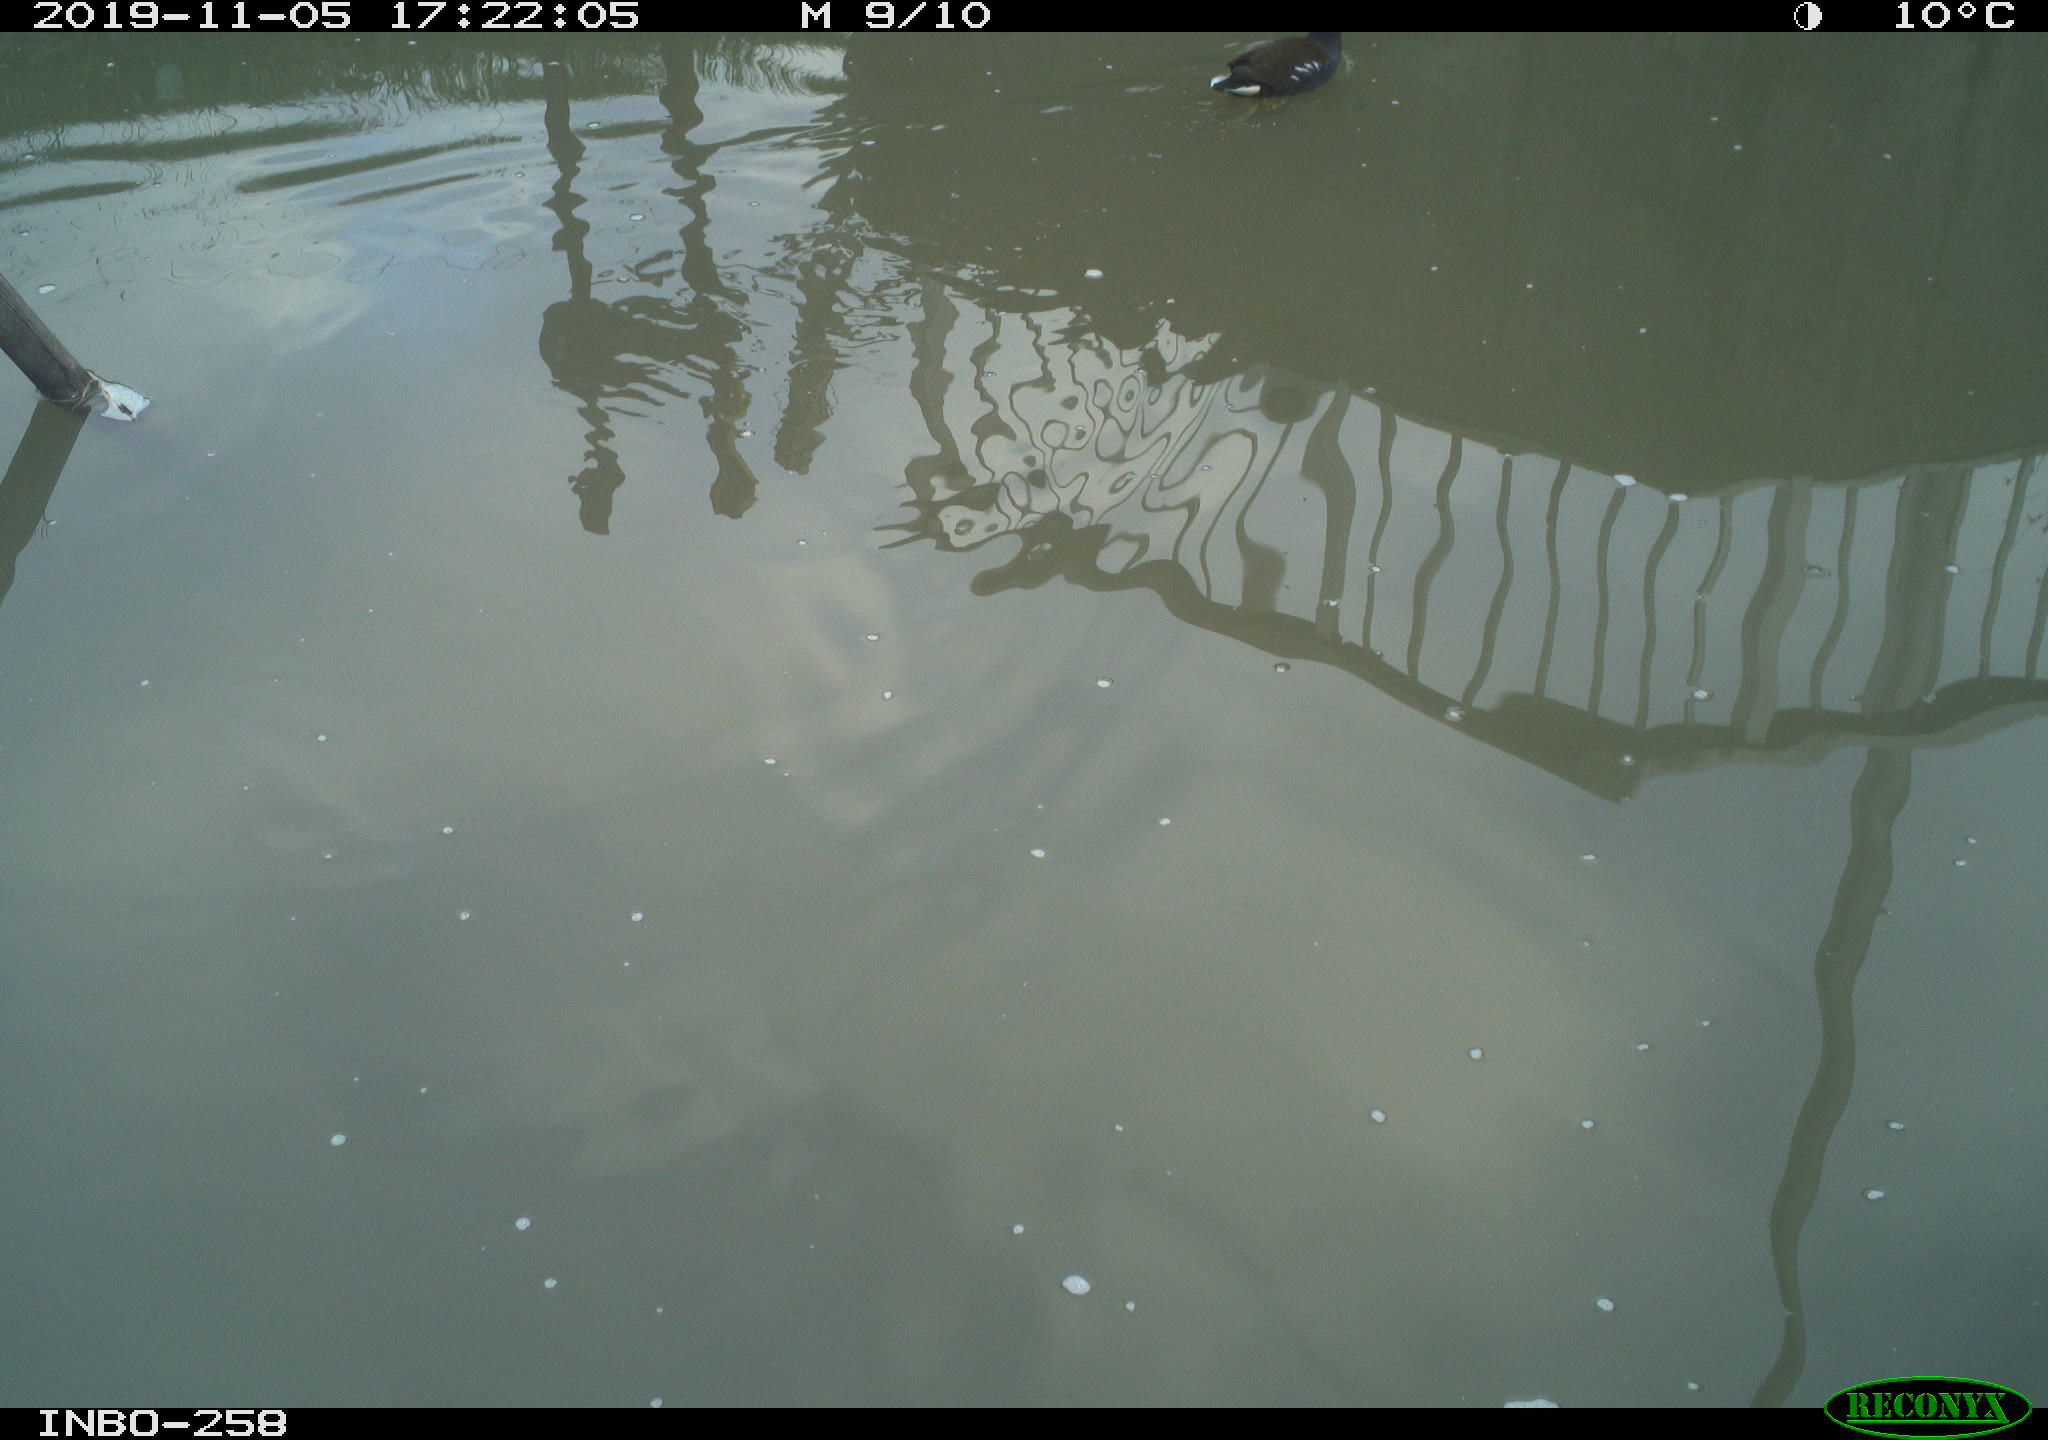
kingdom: Animalia
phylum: Chordata
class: Aves
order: Gruiformes
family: Rallidae
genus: Gallinula
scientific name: Gallinula chloropus
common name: Common moorhen
